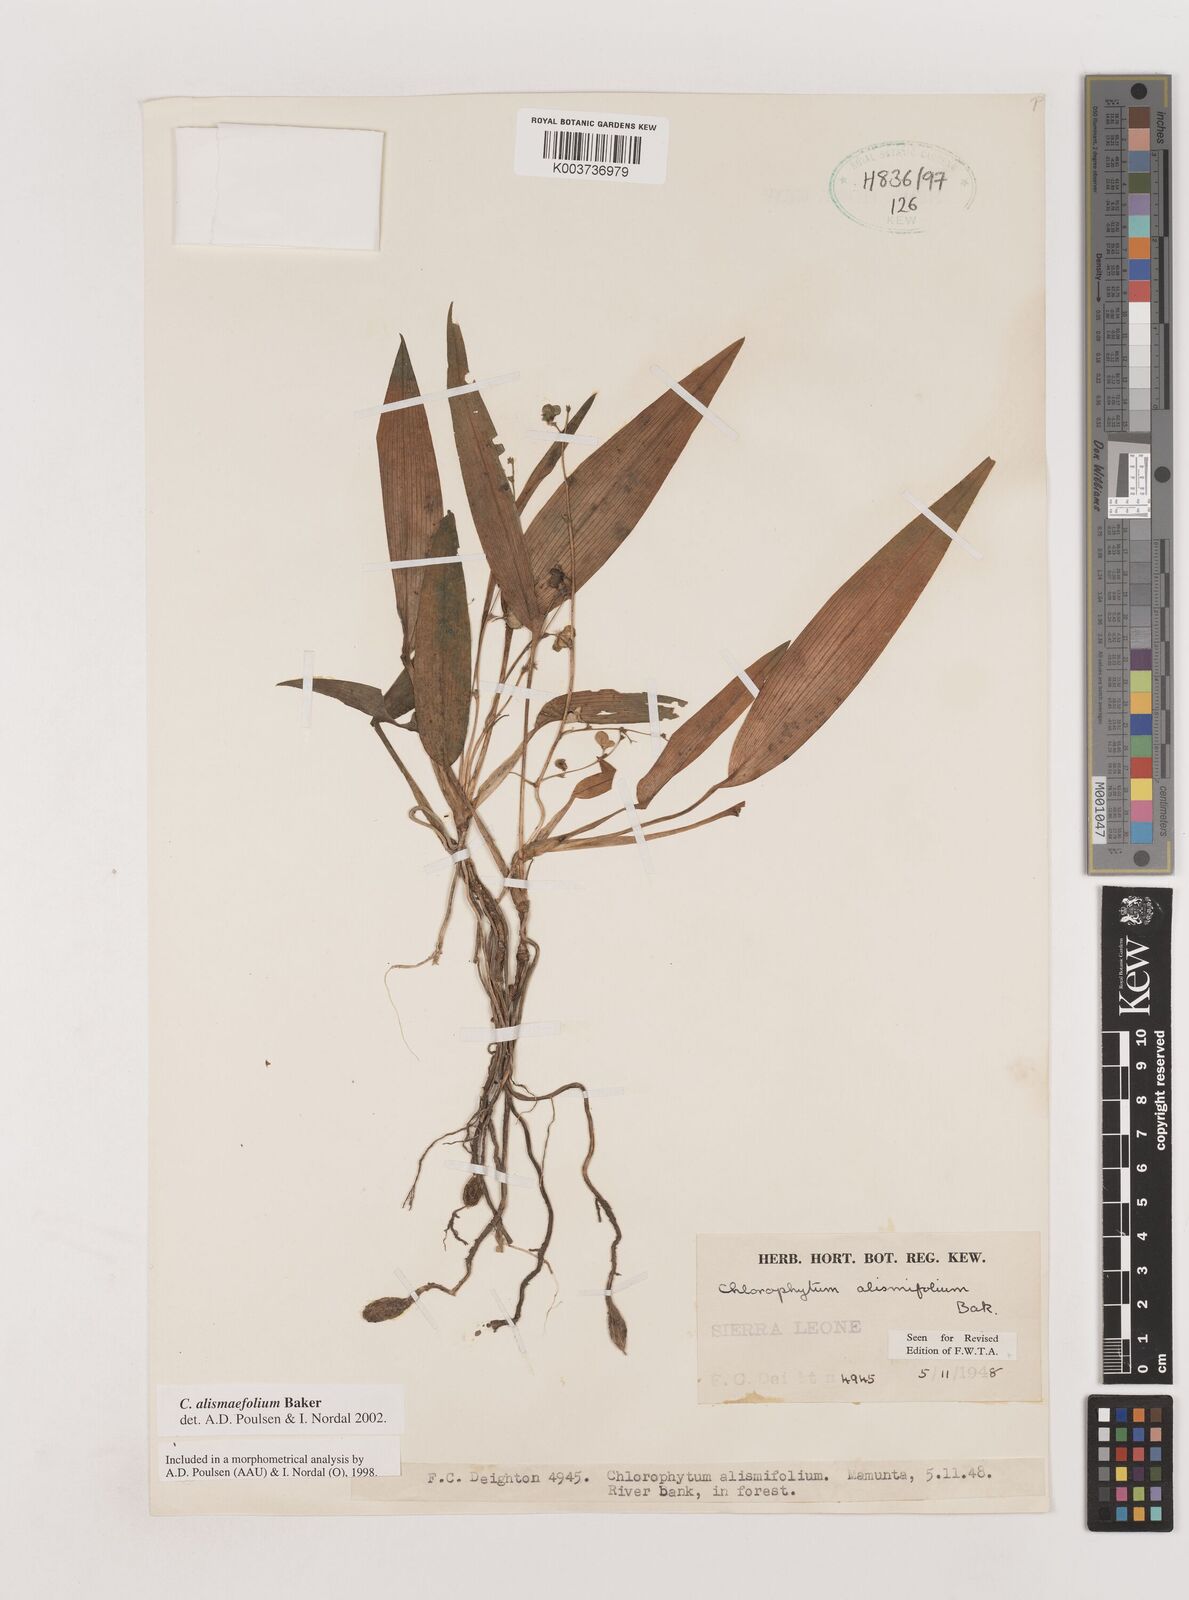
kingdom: Plantae
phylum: Tracheophyta
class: Liliopsida
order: Asparagales
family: Asparagaceae
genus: Chlorophytum
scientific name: Chlorophytum alismifolium
